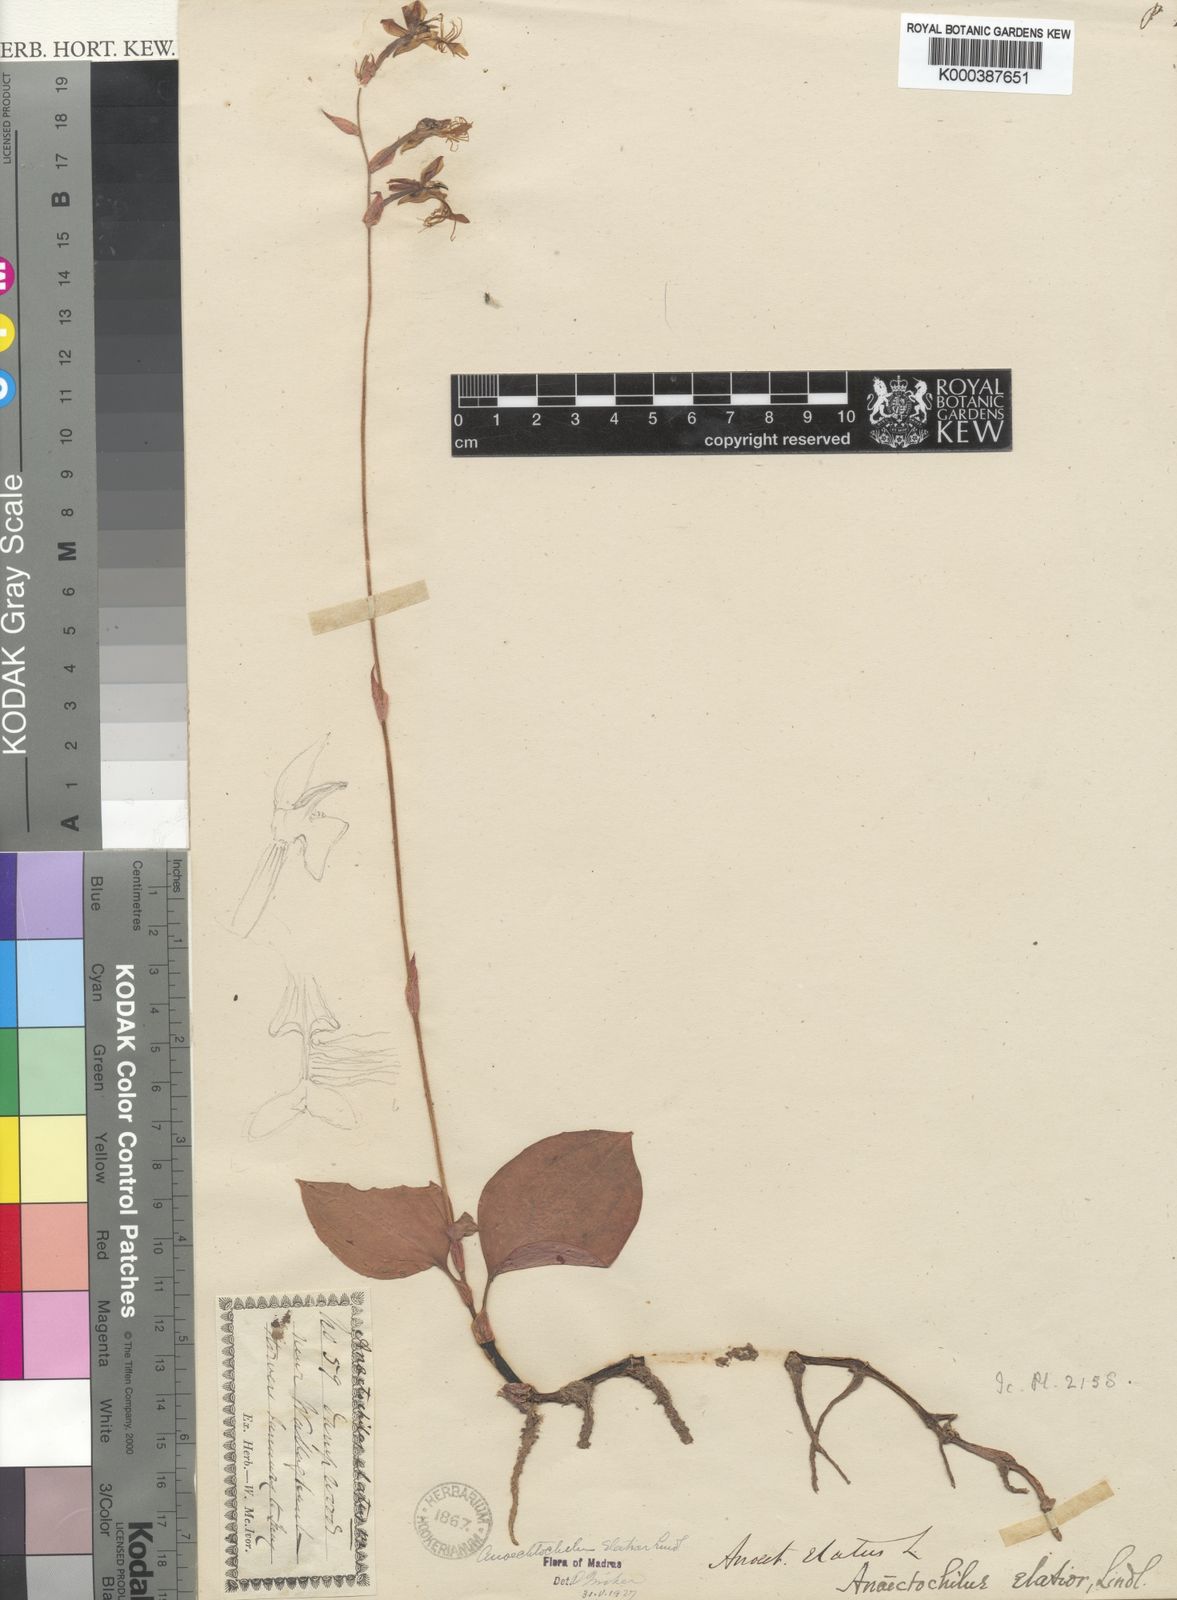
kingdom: Plantae
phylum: Tracheophyta
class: Liliopsida
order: Asparagales
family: Orchidaceae
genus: Anoectochilus
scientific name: Anoectochilus elatus
